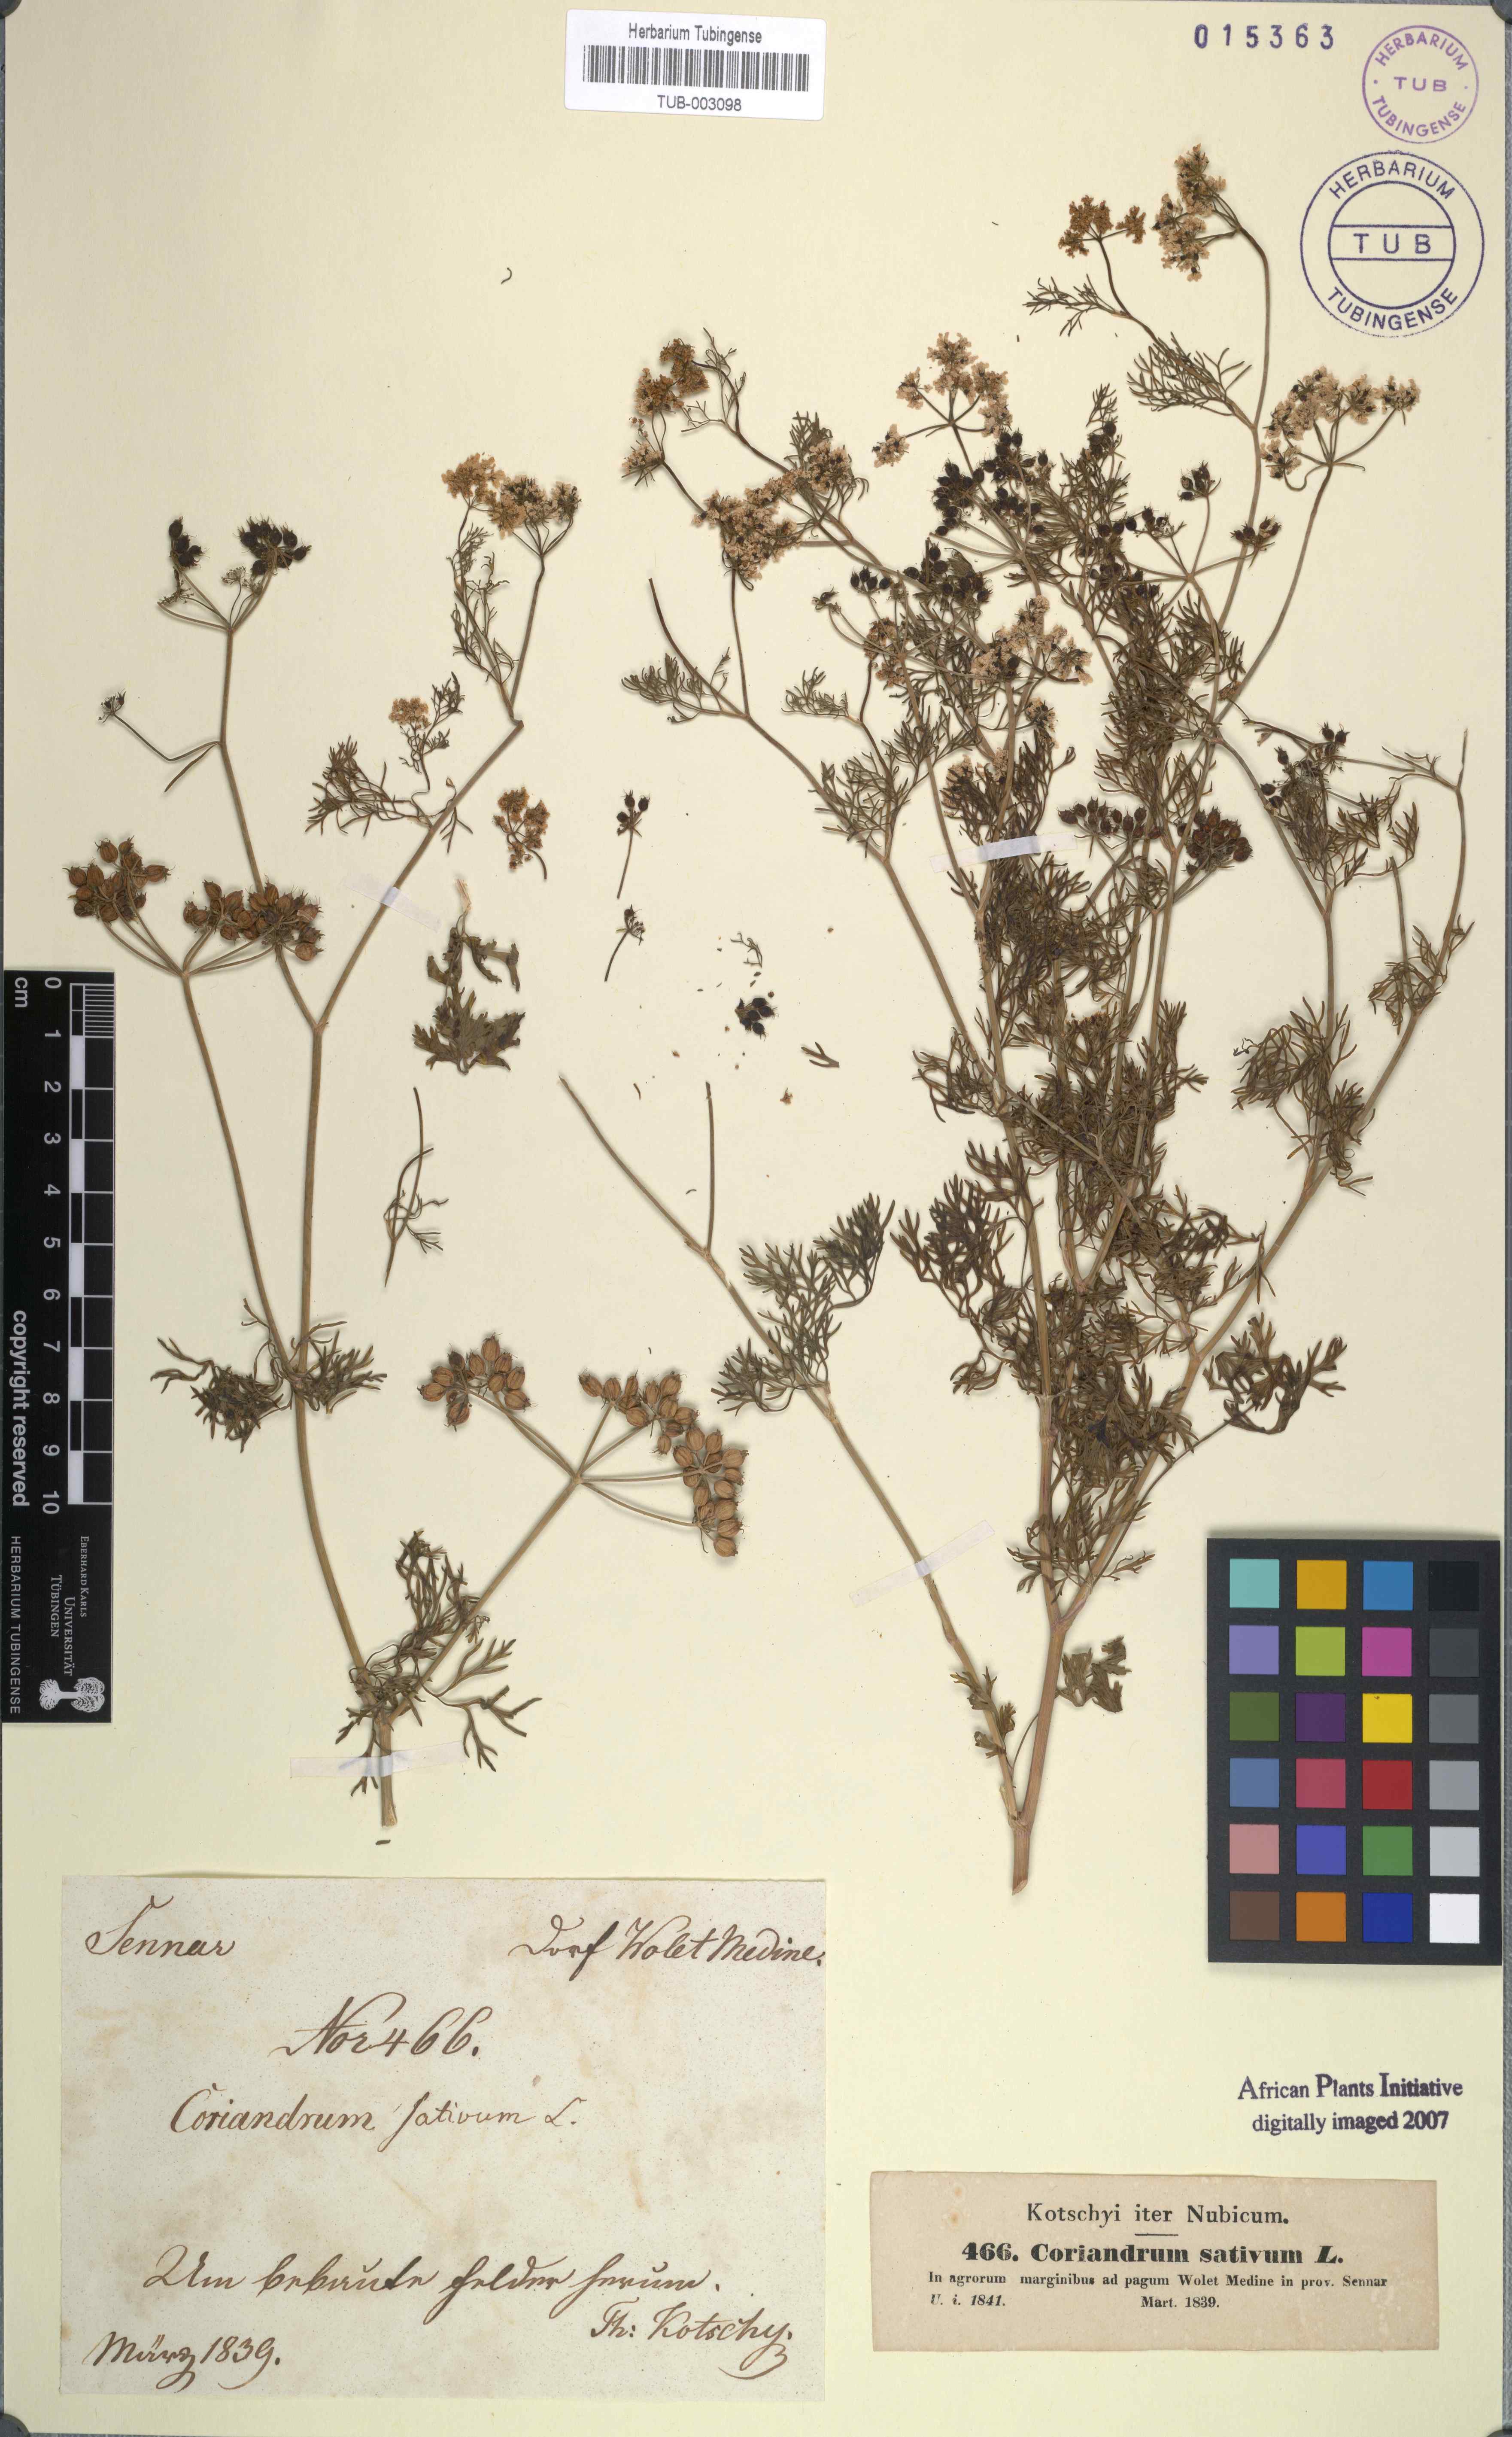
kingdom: Plantae
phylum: Tracheophyta
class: Magnoliopsida
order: Apiales
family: Apiaceae
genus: Coriandrum
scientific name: Coriandrum sativum
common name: Coriander
